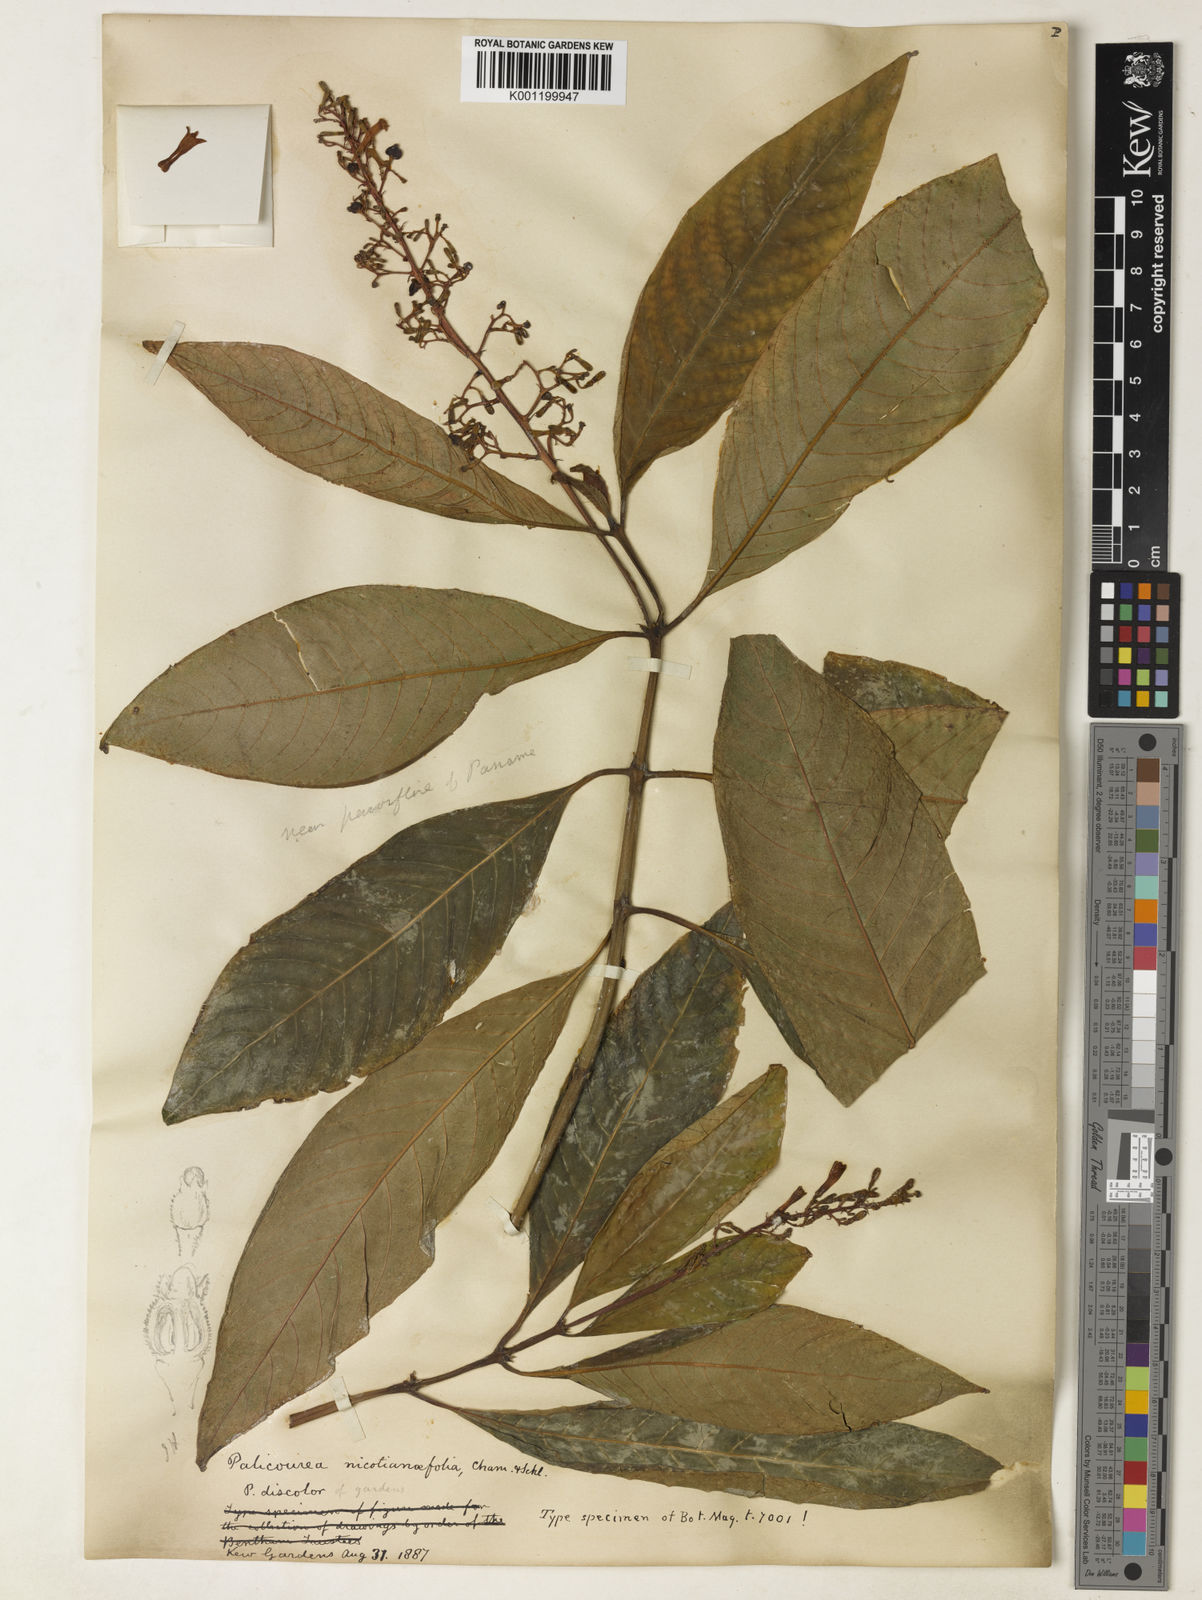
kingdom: Plantae
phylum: Tracheophyta
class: Magnoliopsida
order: Gentianales
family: Rubiaceae
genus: Palicourea
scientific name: Palicourea macrobotrys
